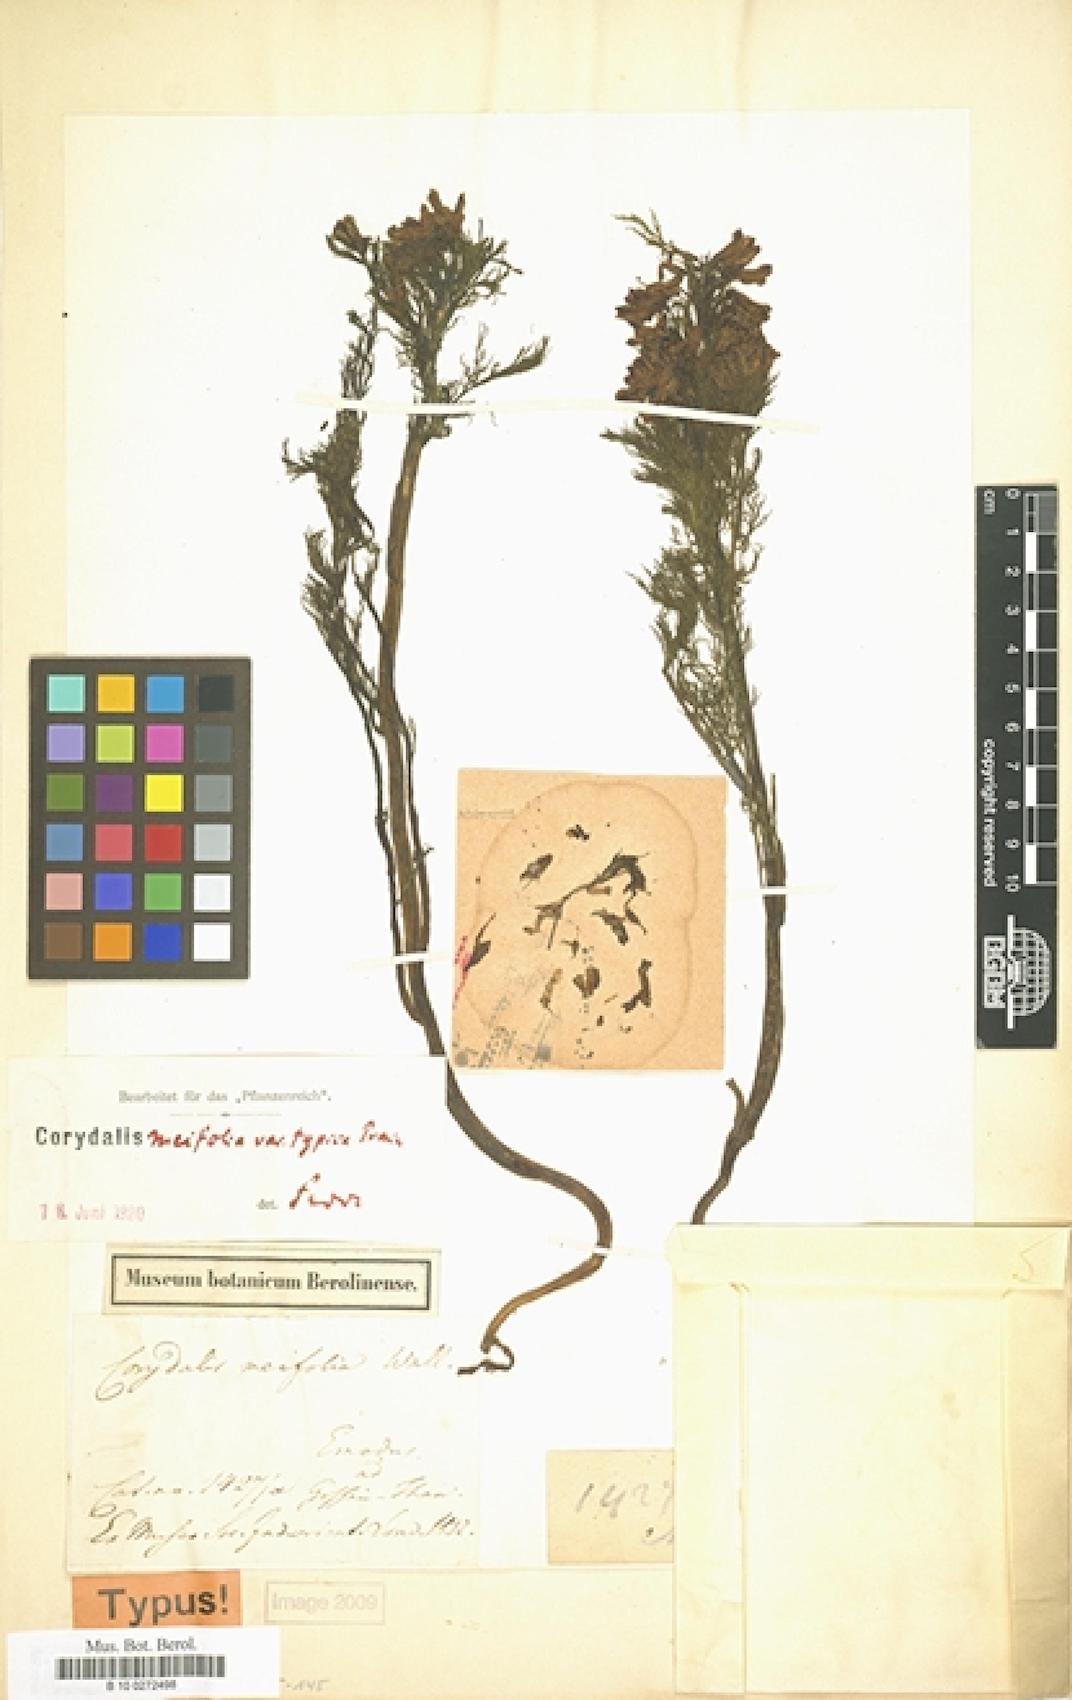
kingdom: Plantae
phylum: Tracheophyta
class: Magnoliopsida
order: Ranunculales
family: Papaveraceae
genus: Corydalis
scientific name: Corydalis meifolia
